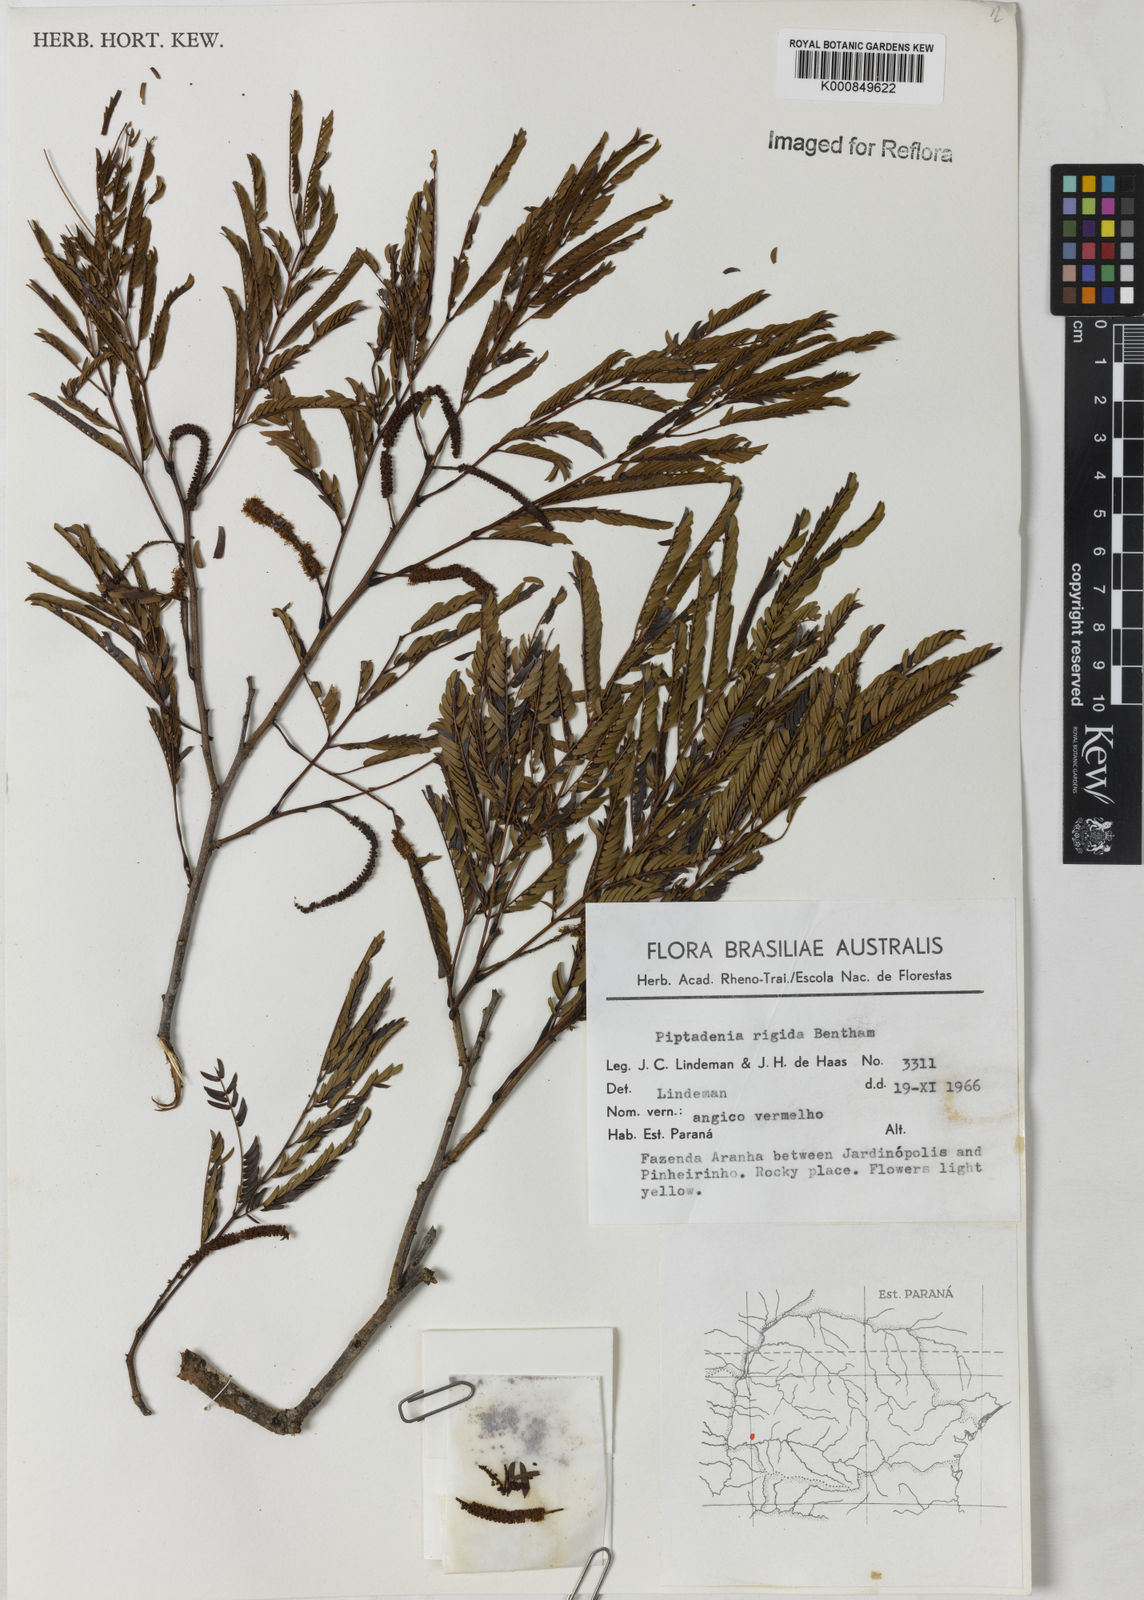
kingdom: Plantae
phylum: Tracheophyta
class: Magnoliopsida
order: Fabales
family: Fabaceae
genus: Parapiptadenia
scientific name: Parapiptadenia rigida
